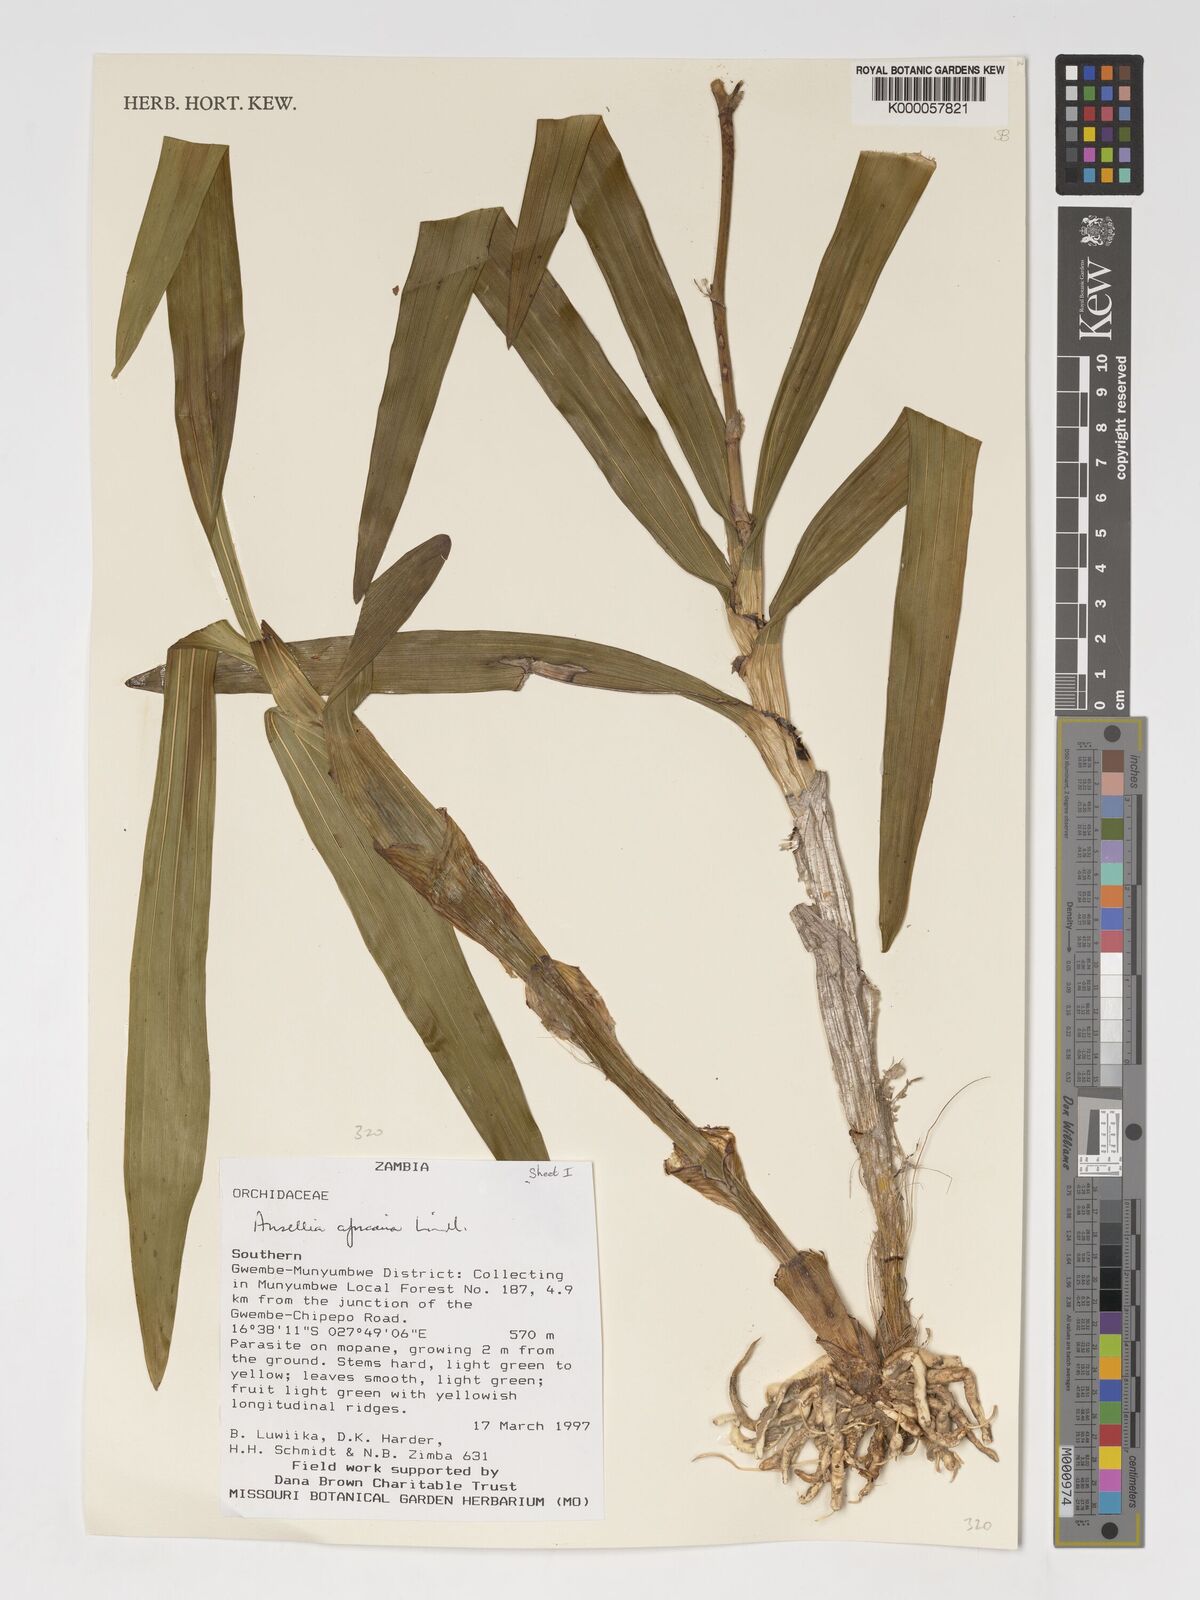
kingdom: Plantae
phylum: Tracheophyta
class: Liliopsida
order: Asparagales
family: Orchidaceae
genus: Ansellia
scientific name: Ansellia africana
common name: African ansellia
